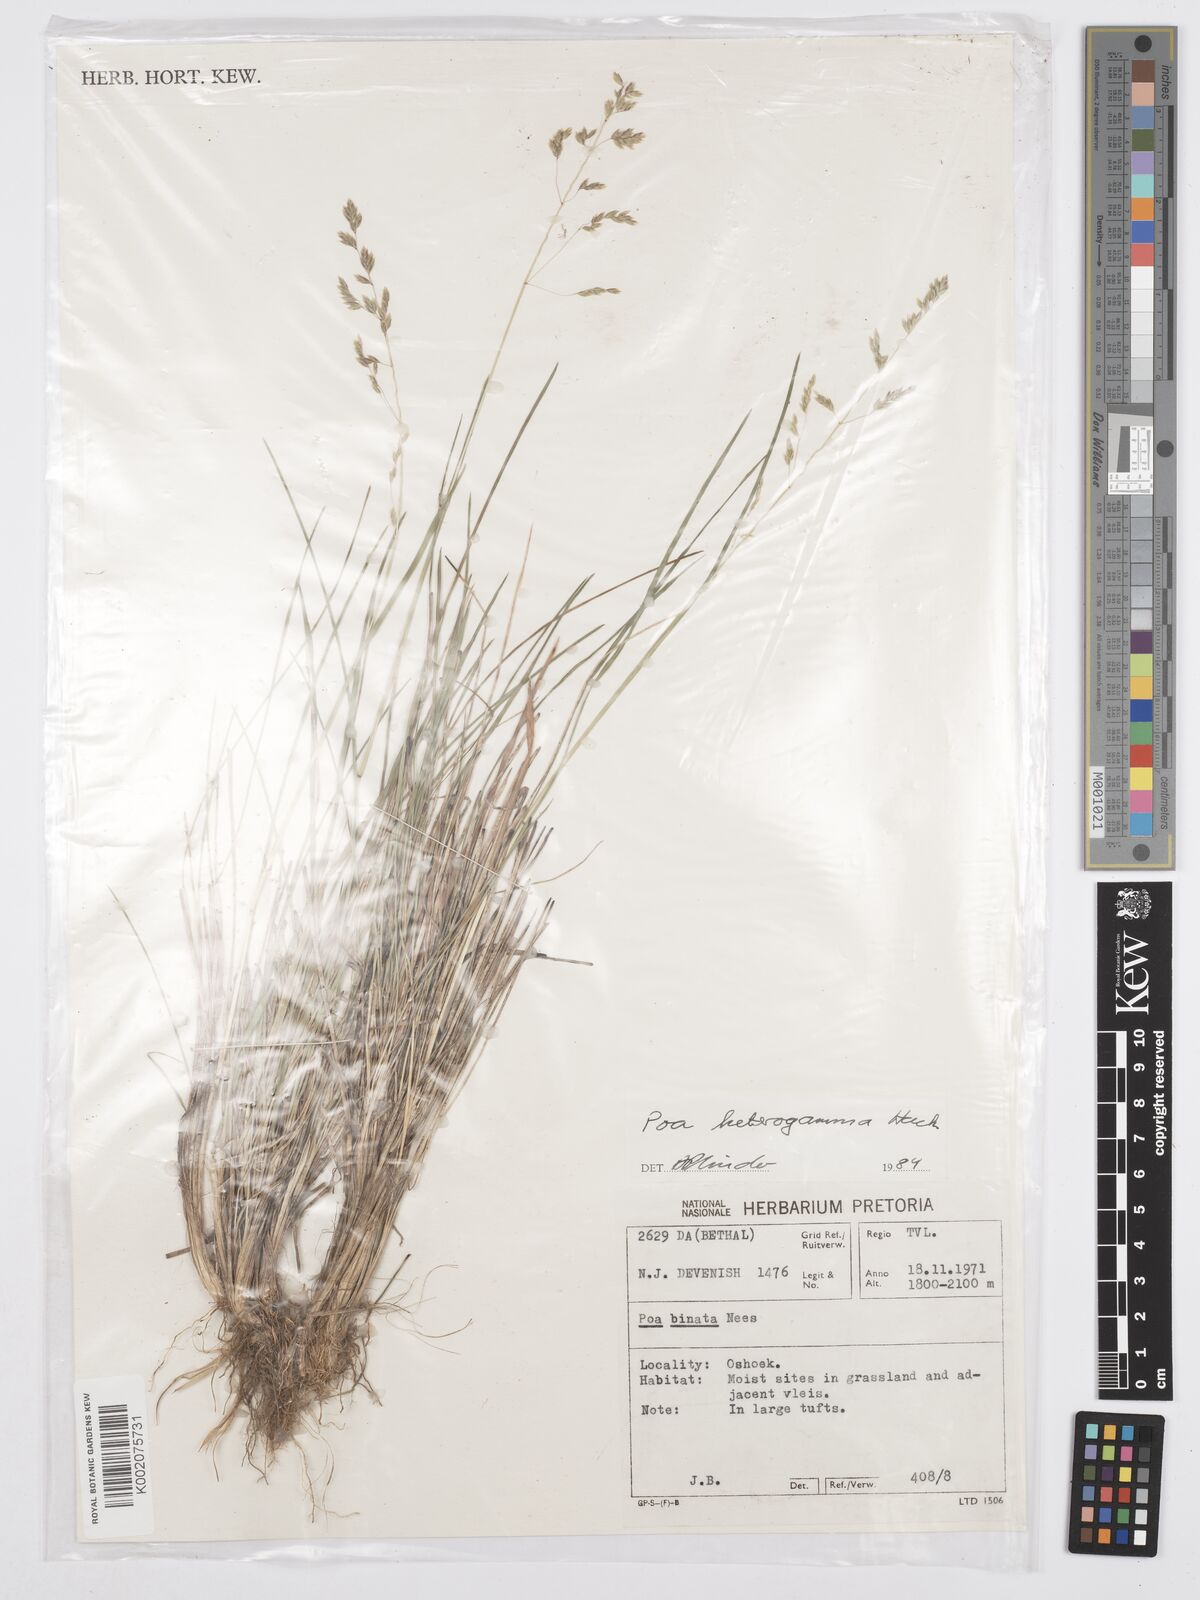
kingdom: Plantae
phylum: Tracheophyta
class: Liliopsida
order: Poales
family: Poaceae
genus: Poa
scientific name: Poa binata
